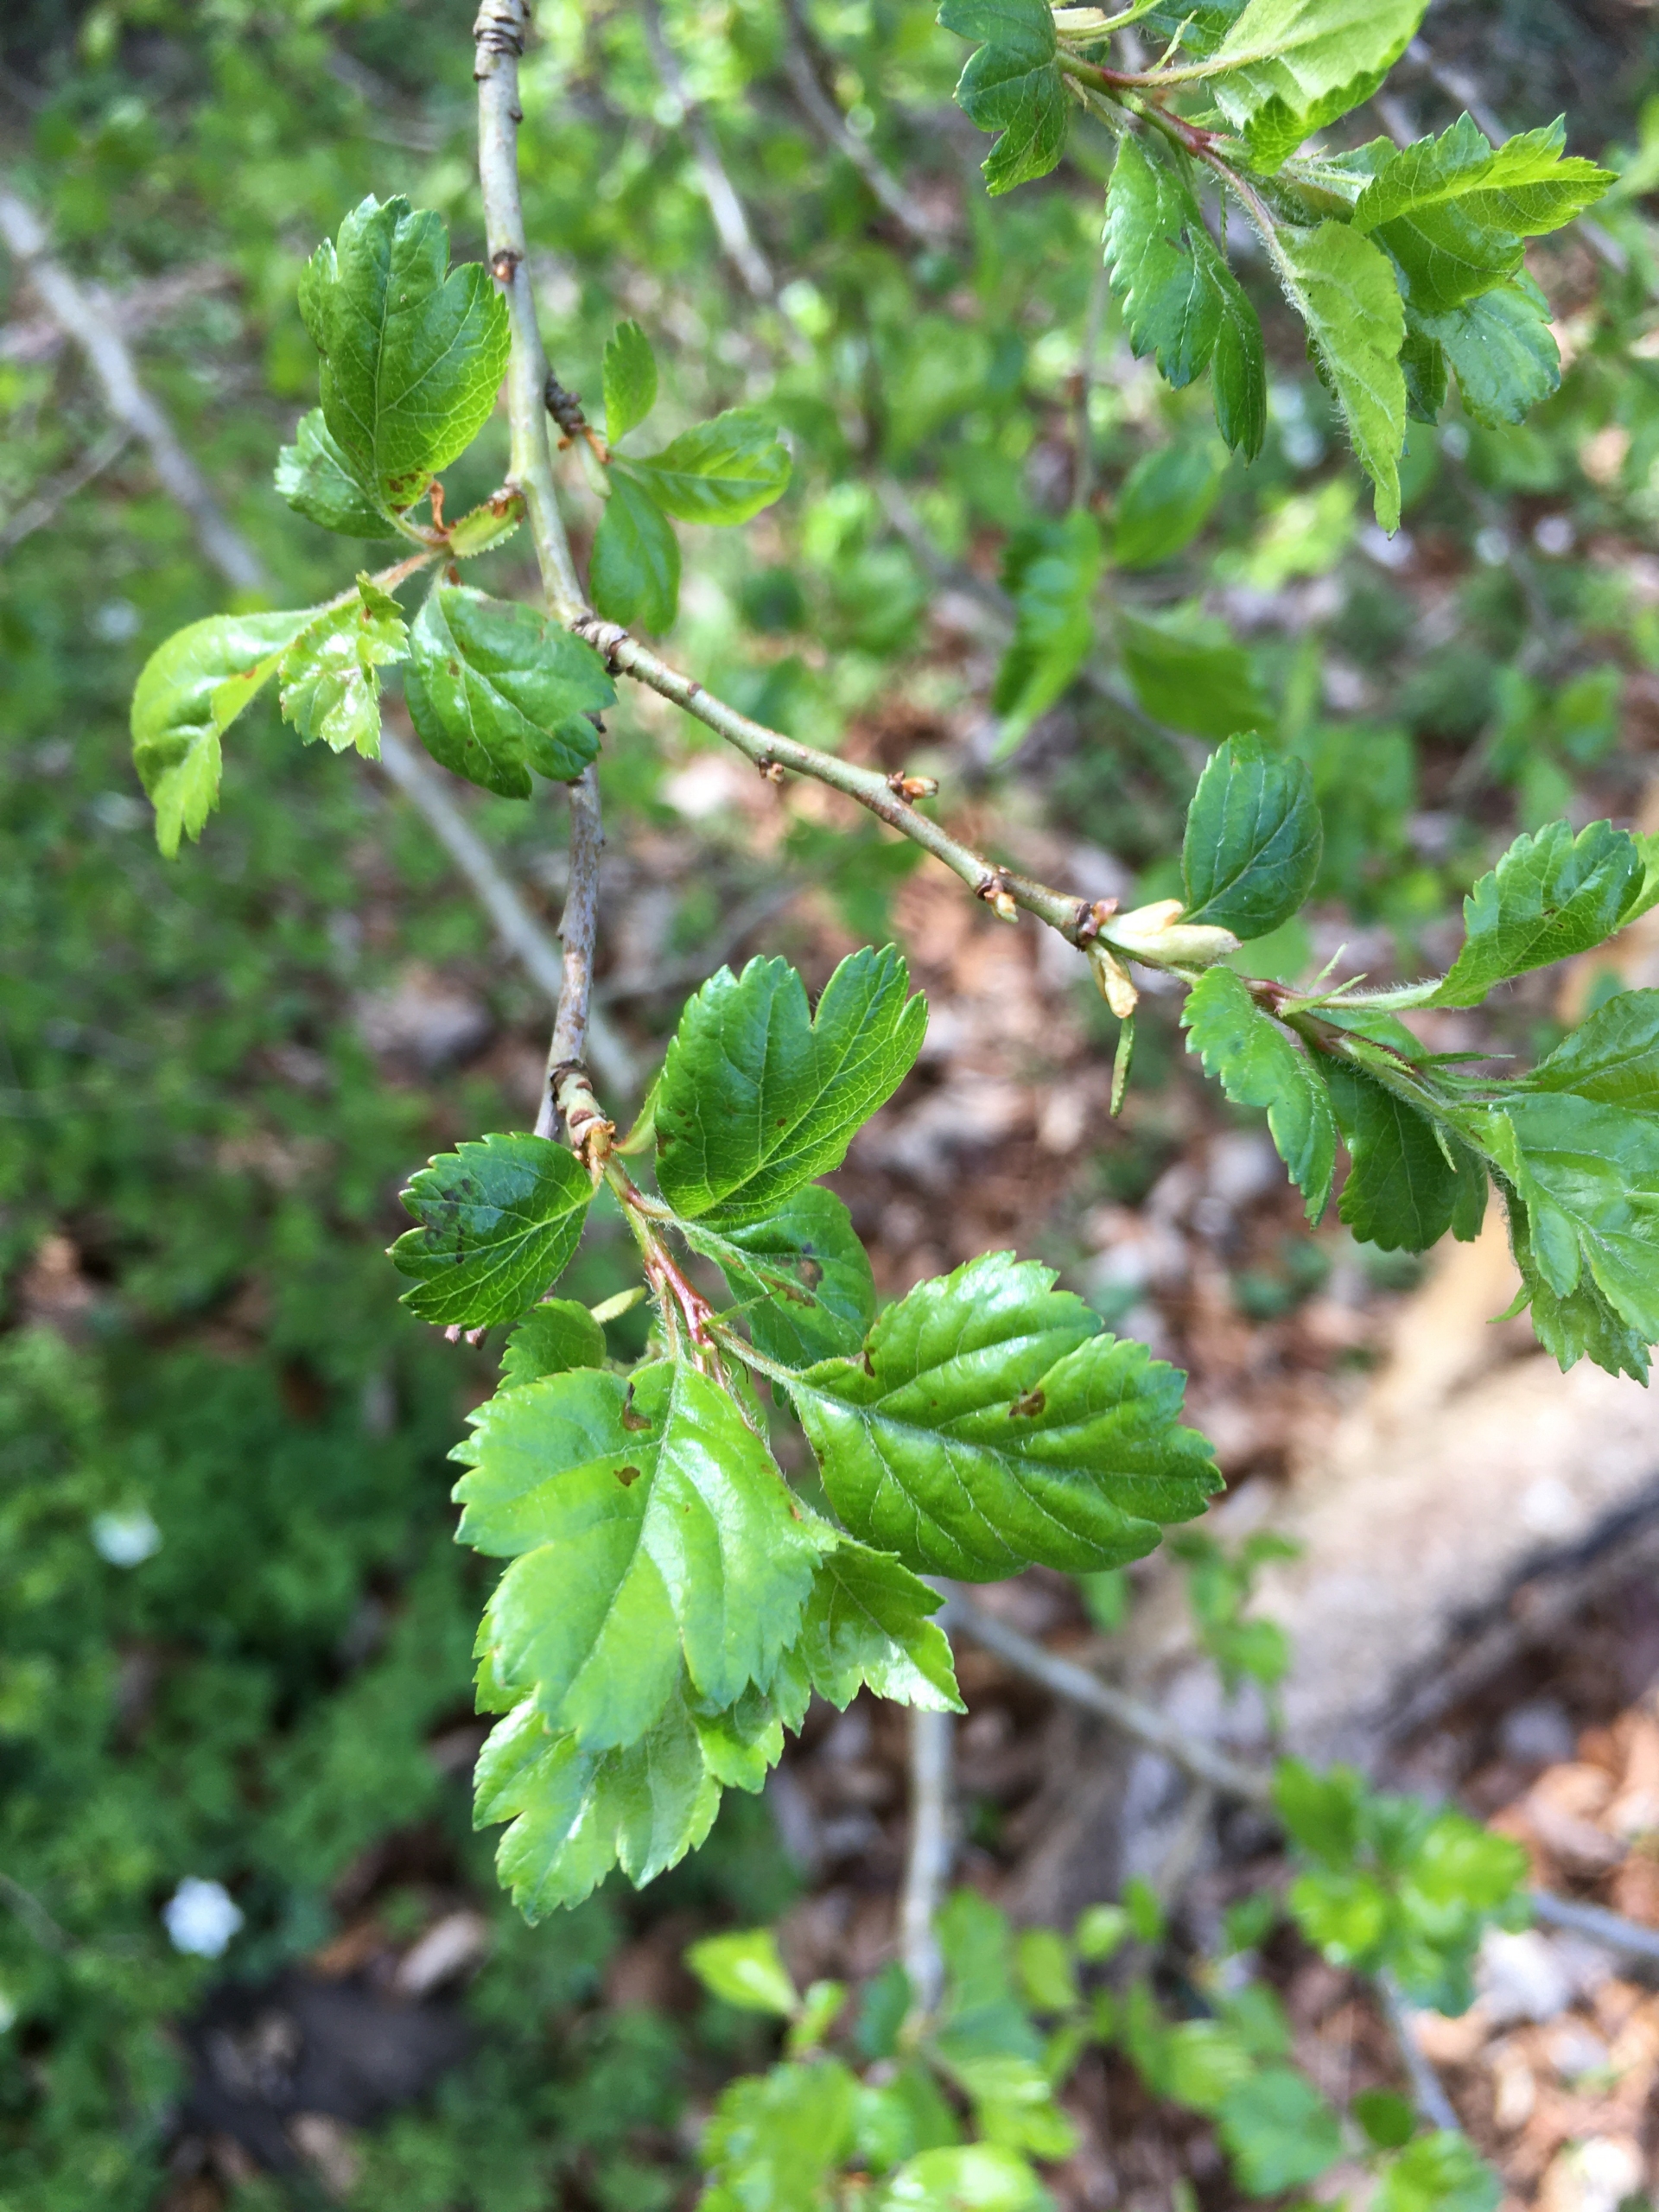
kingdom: Plantae
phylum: Tracheophyta
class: Magnoliopsida
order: Rosales
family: Rosaceae
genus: Crataegus
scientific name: Crataegus laevigata
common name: Almindelig hvidtjørn
